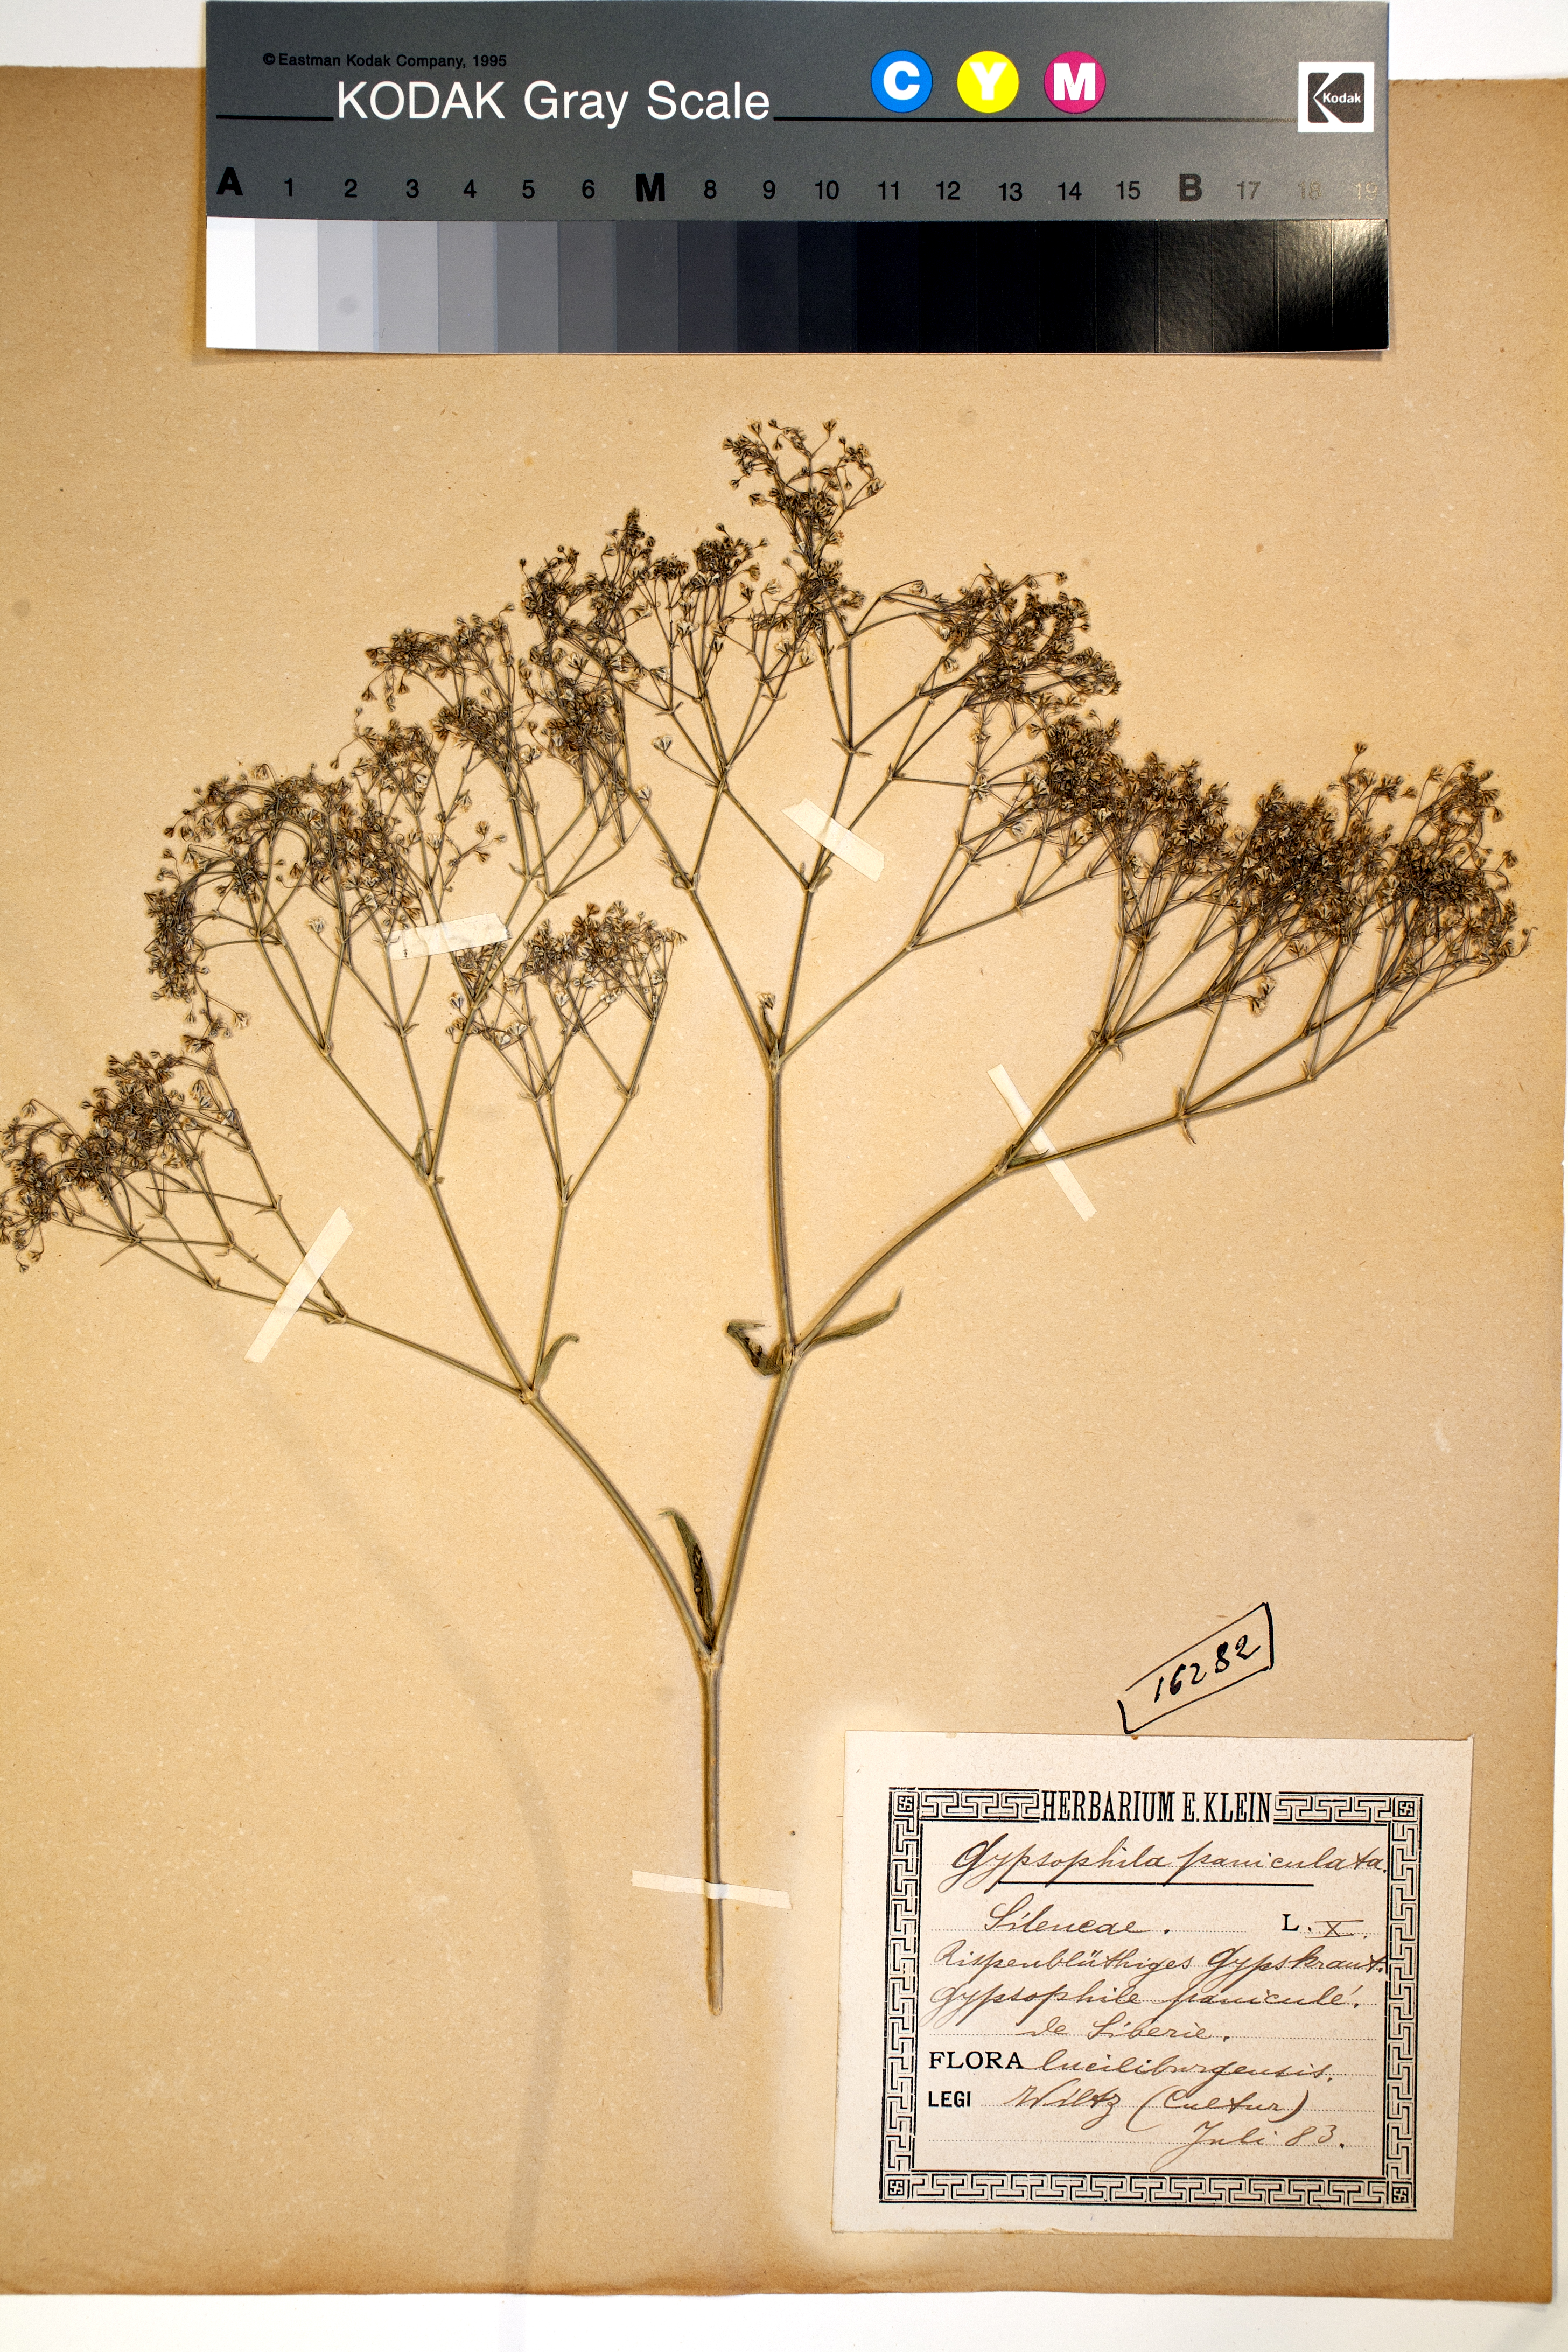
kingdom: Plantae
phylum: Tracheophyta
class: Magnoliopsida
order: Caryophyllales
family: Caryophyllaceae
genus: Gypsophila
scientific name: Gypsophila paniculata
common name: Baby's-breath
